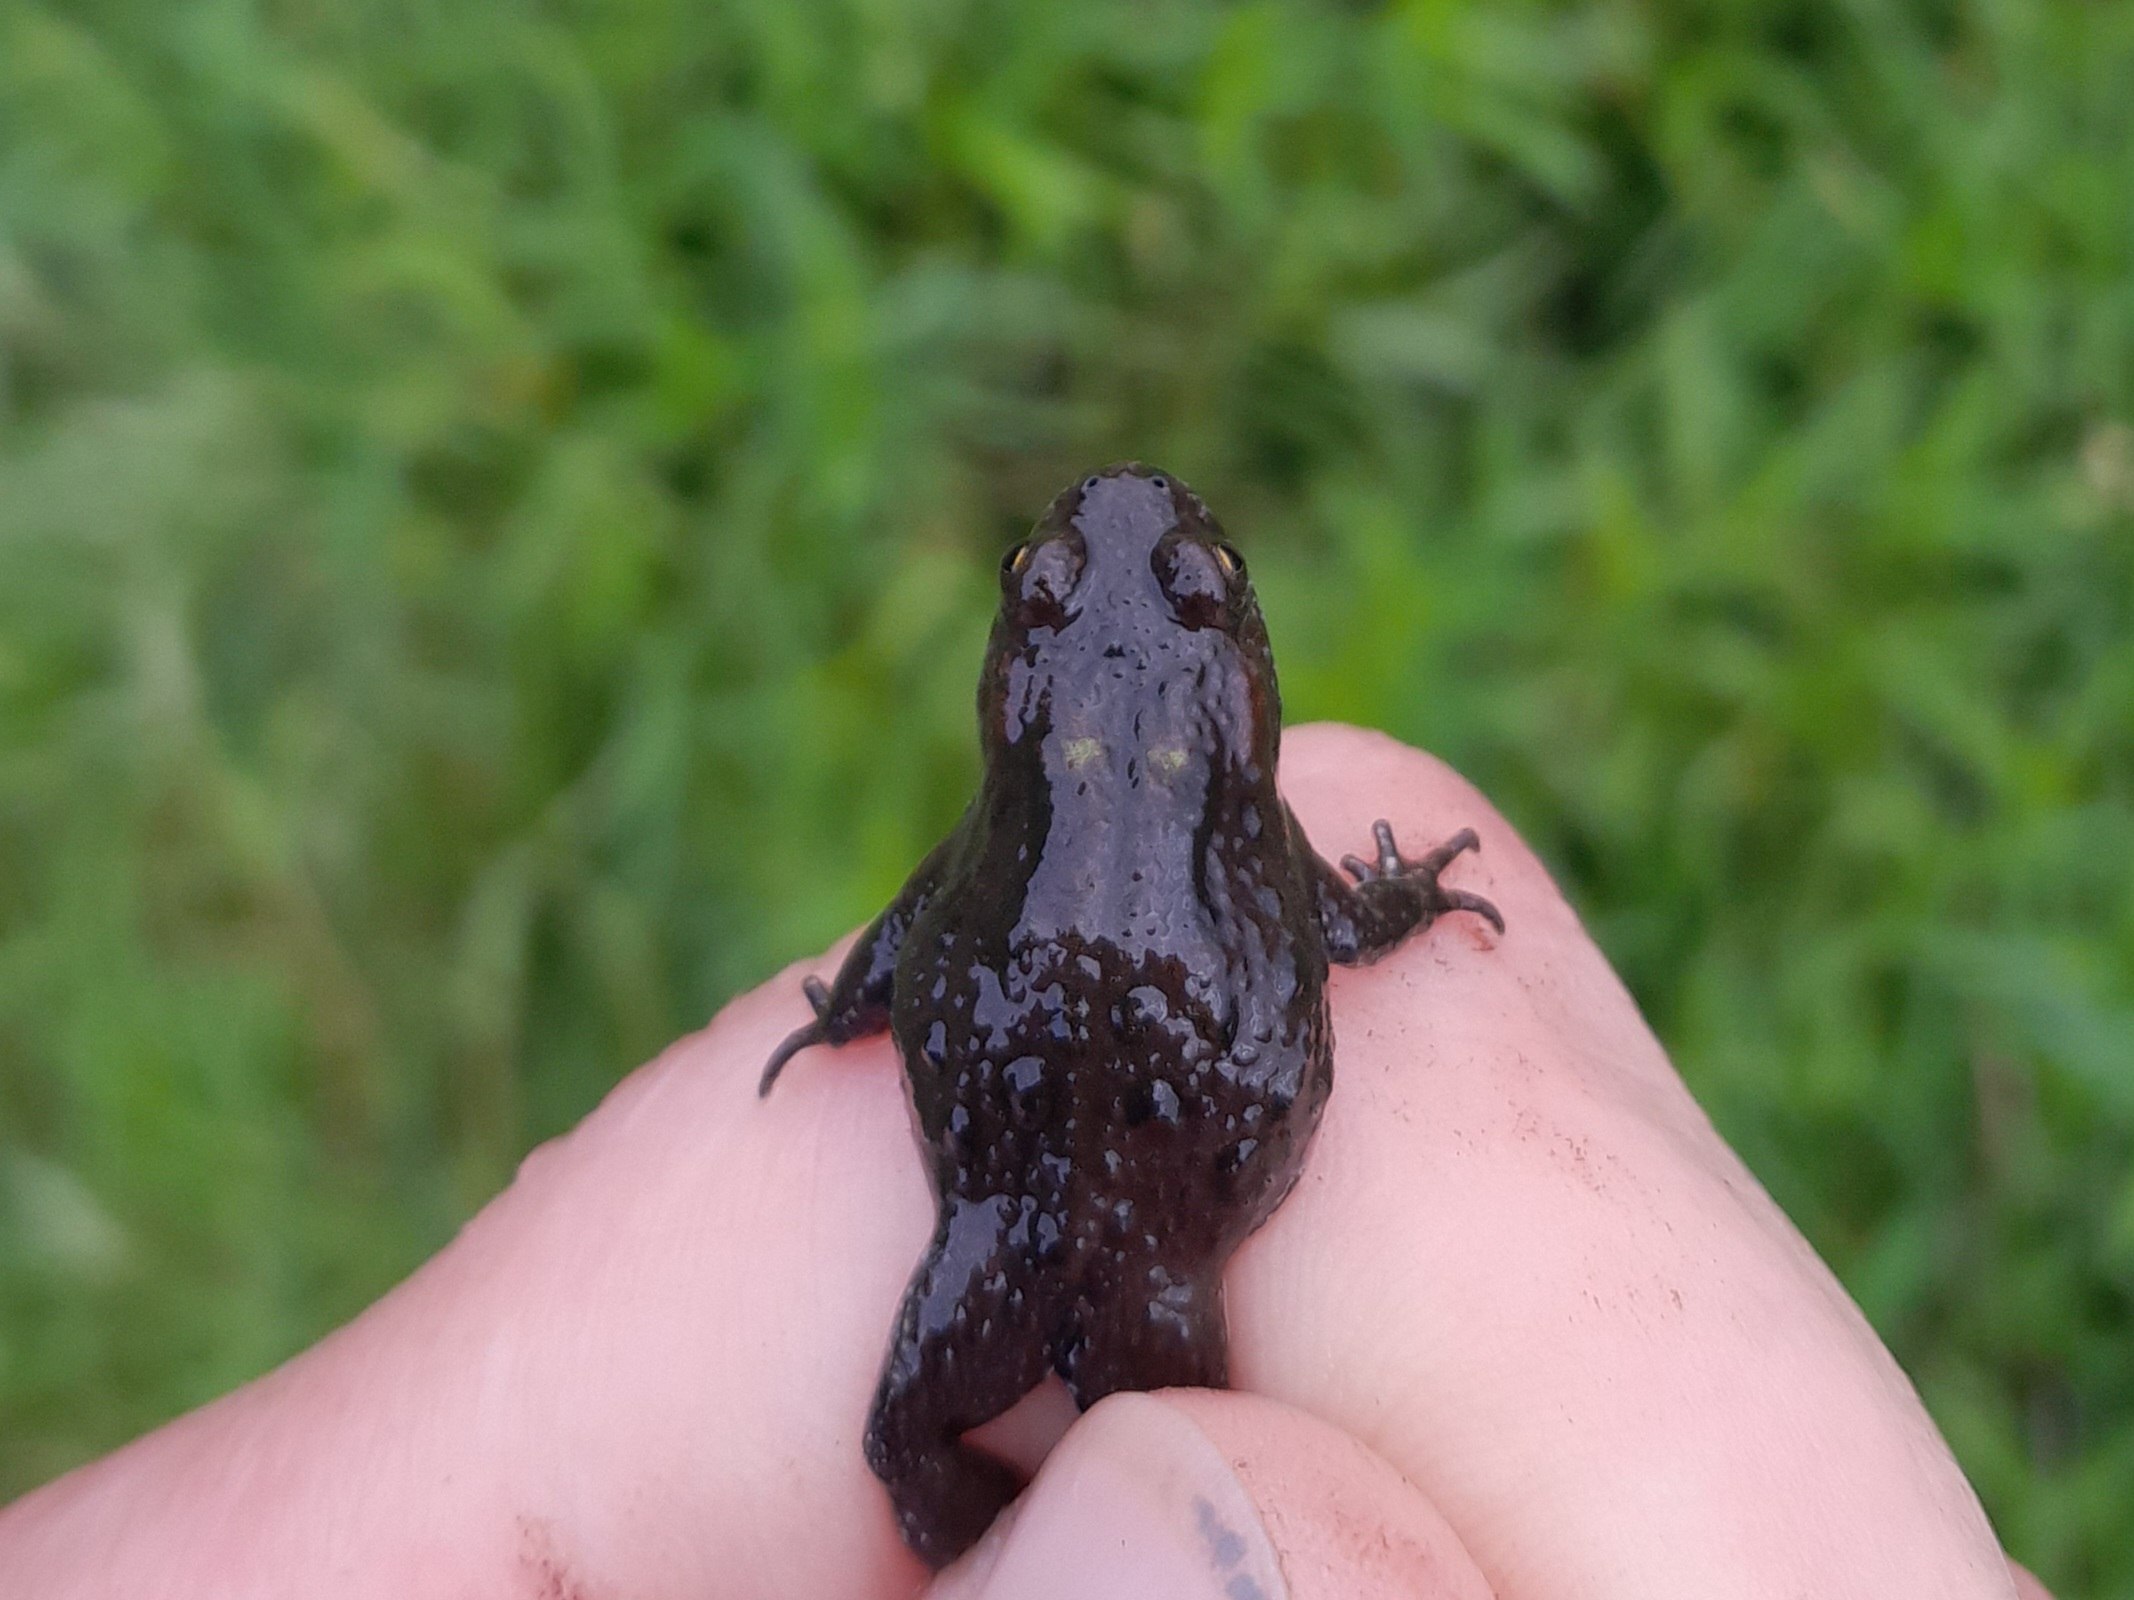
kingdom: Animalia
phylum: Chordata
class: Amphibia
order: Anura
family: Bombinatoridae
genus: Bombina
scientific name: Bombina bombina
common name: Klokkefrø
